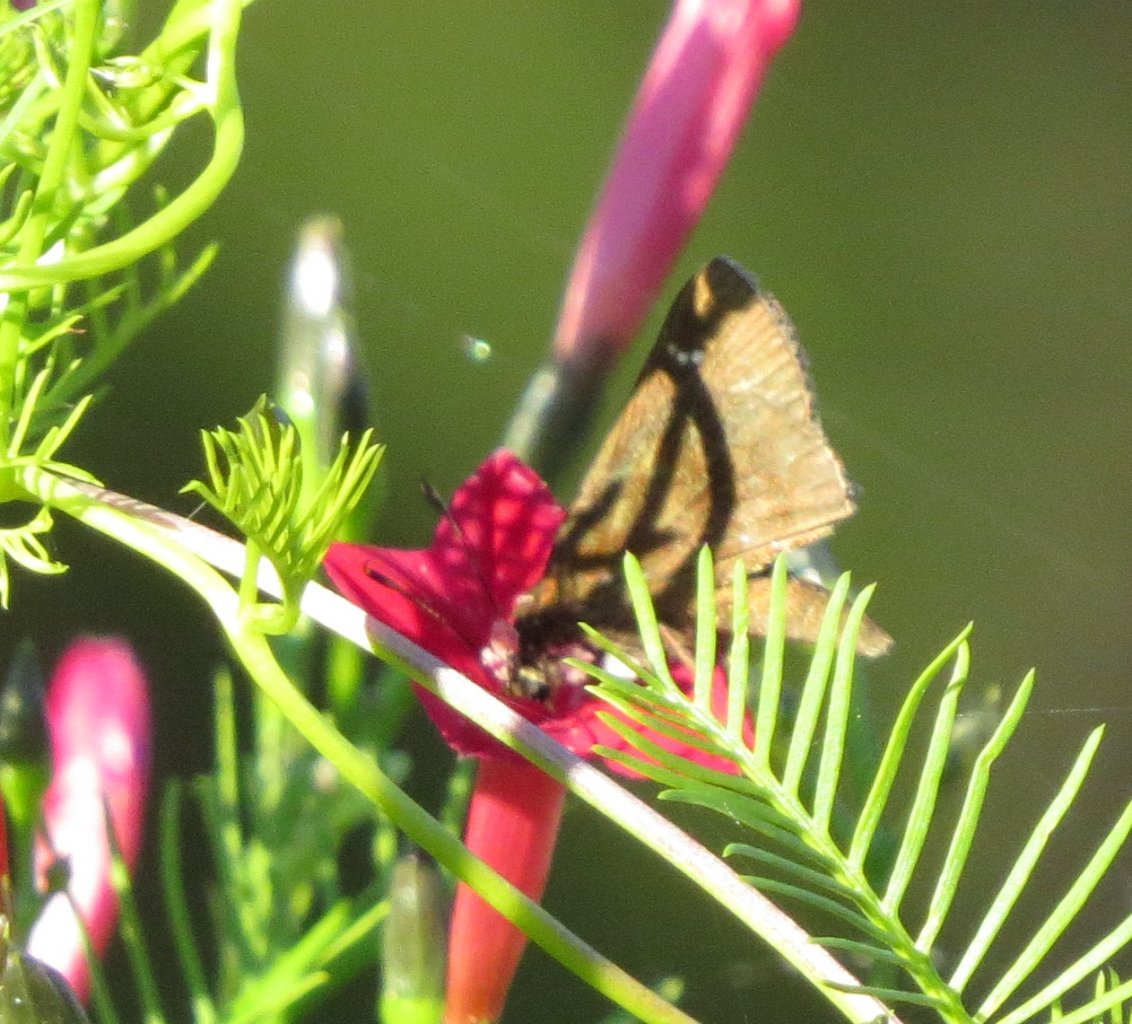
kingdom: Animalia
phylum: Arthropoda
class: Insecta
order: Lepidoptera
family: Hesperiidae
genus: Lerema
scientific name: Lerema accius
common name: Clouded Skipper
